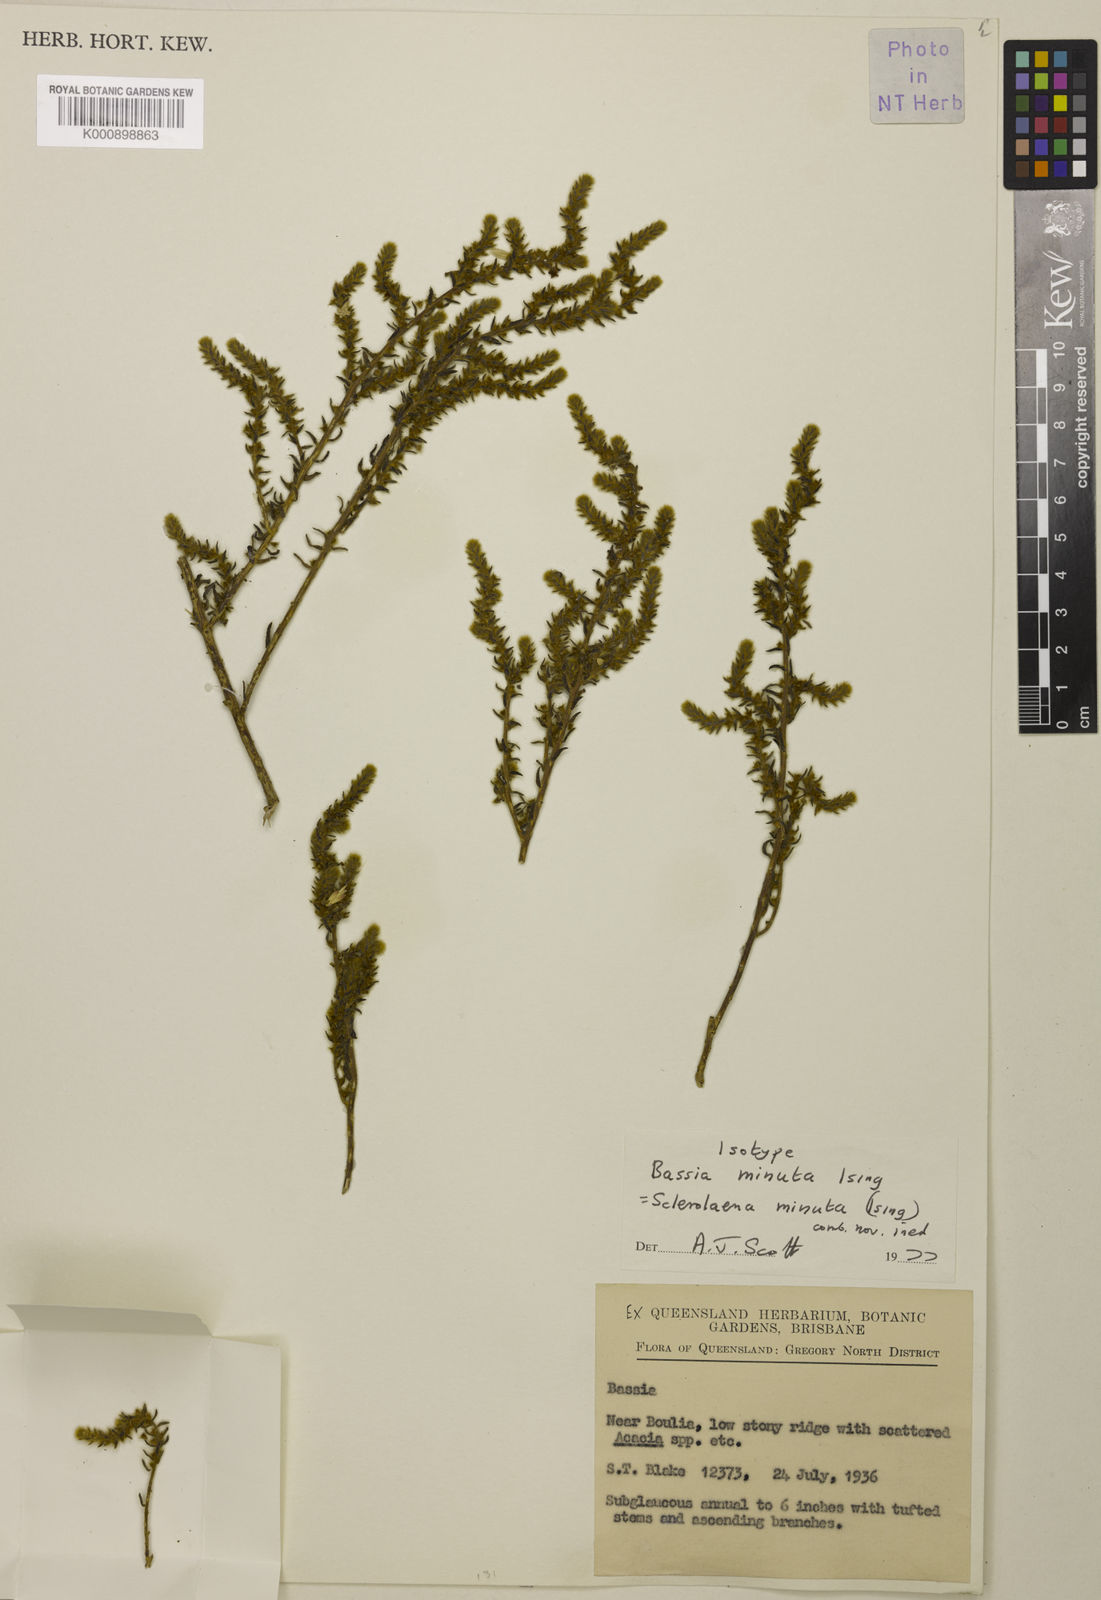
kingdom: Plantae
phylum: Tracheophyta
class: Magnoliopsida
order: Caryophyllales
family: Amaranthaceae
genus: Sclerolaena
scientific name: Sclerolaena minuta
